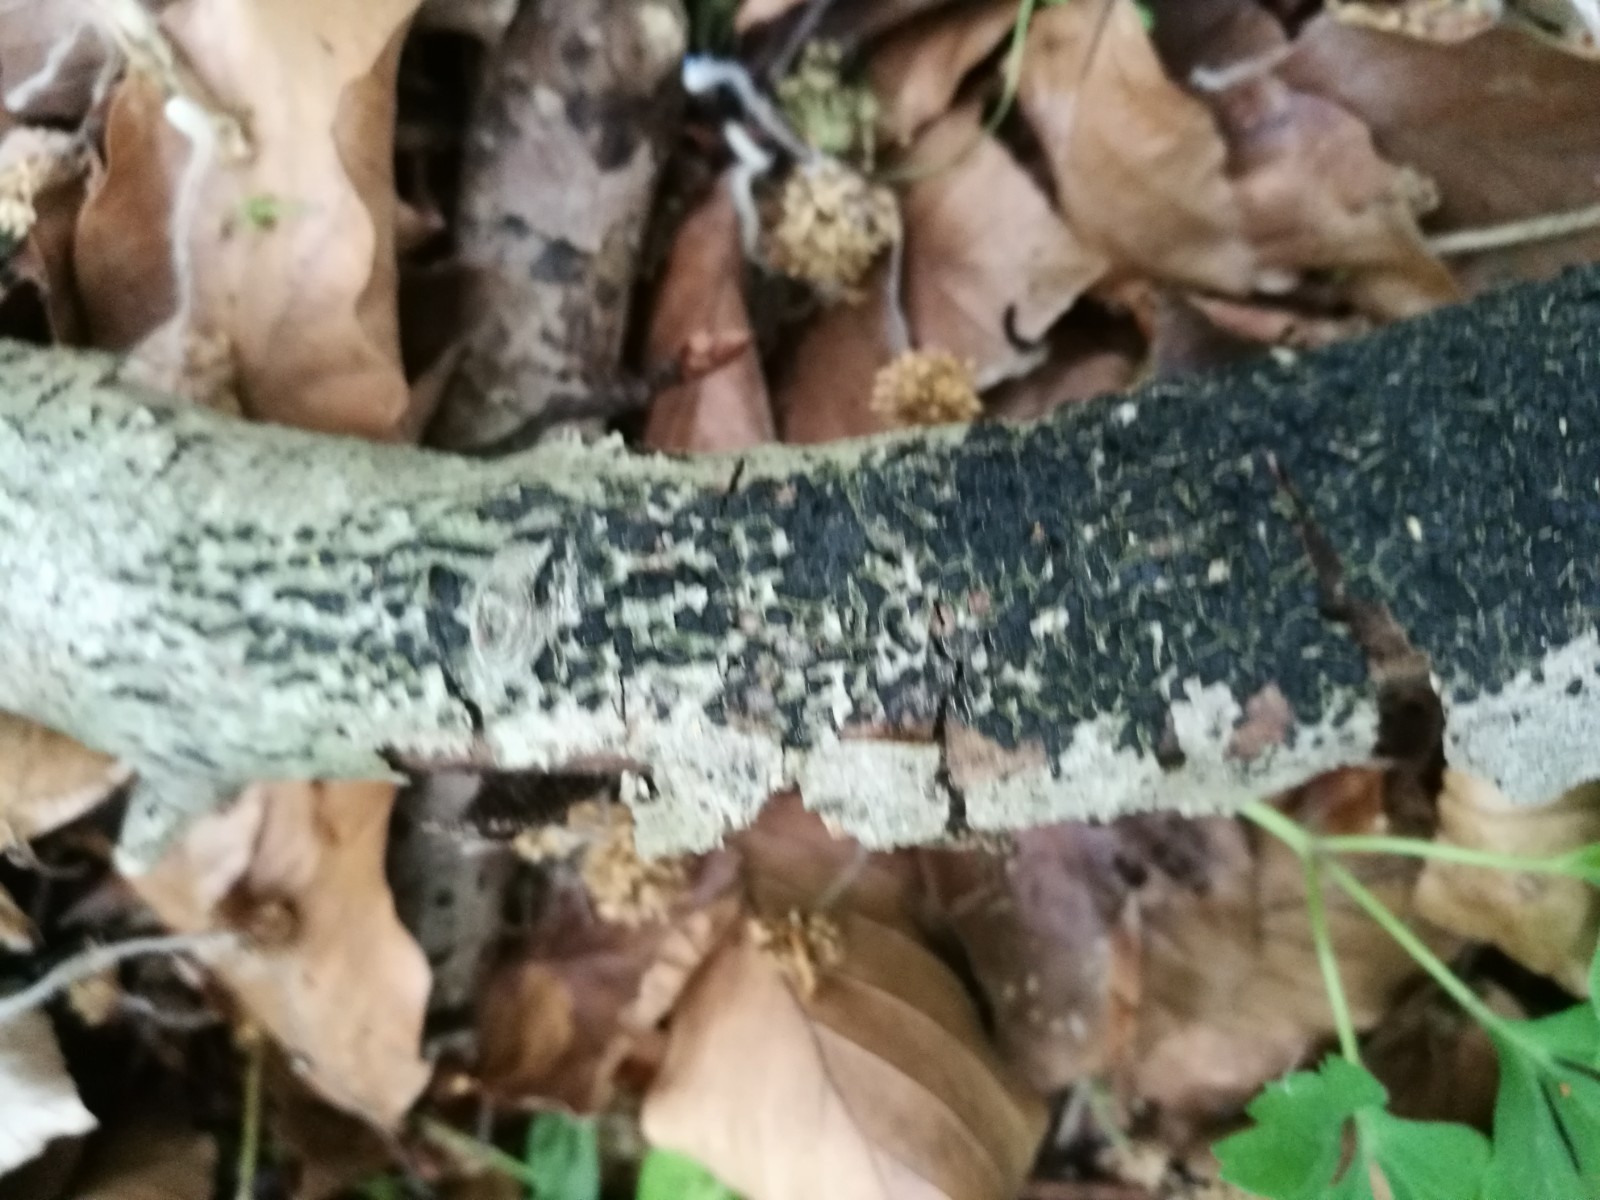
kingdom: Fungi
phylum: Ascomycota
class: Sordariomycetes
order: Xylariales
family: Melogrammataceae
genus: Melogramma
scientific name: Melogramma spiniferum
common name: bøgefod-kulhals
